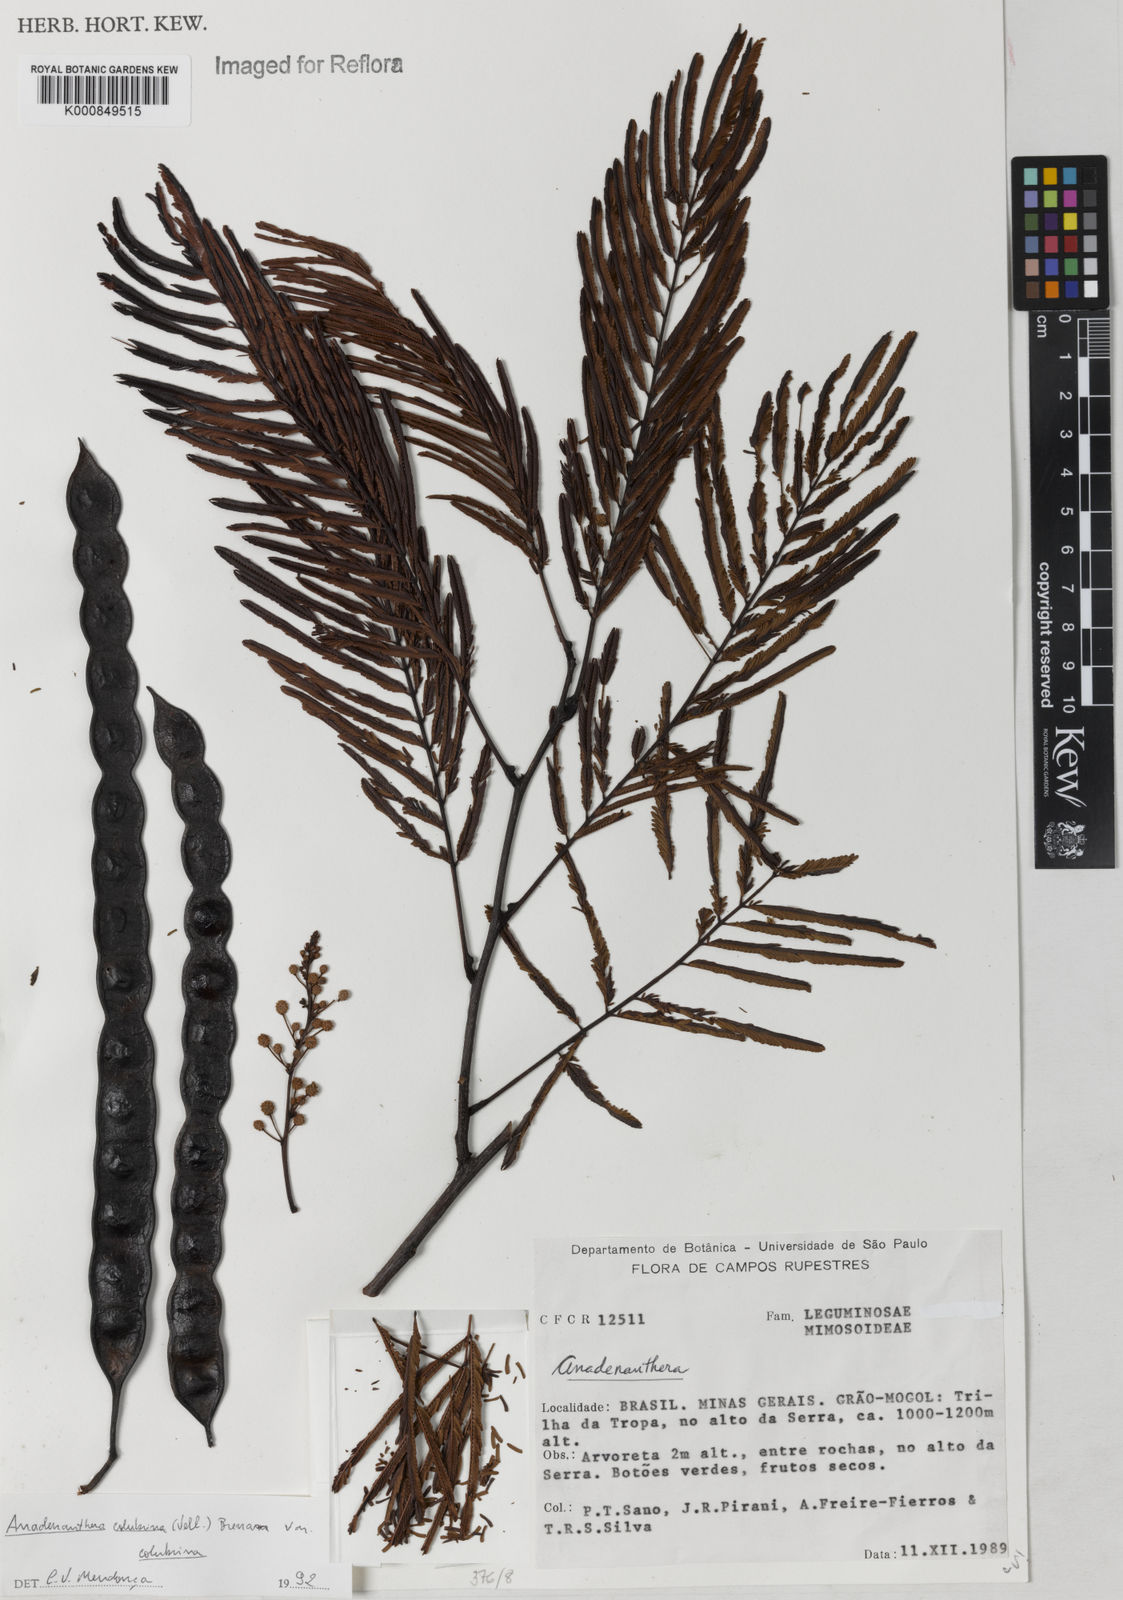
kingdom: Plantae
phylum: Tracheophyta
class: Magnoliopsida
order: Fabales
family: Fabaceae
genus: Anadenanthera
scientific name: Anadenanthera colubrina
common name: Curupay
